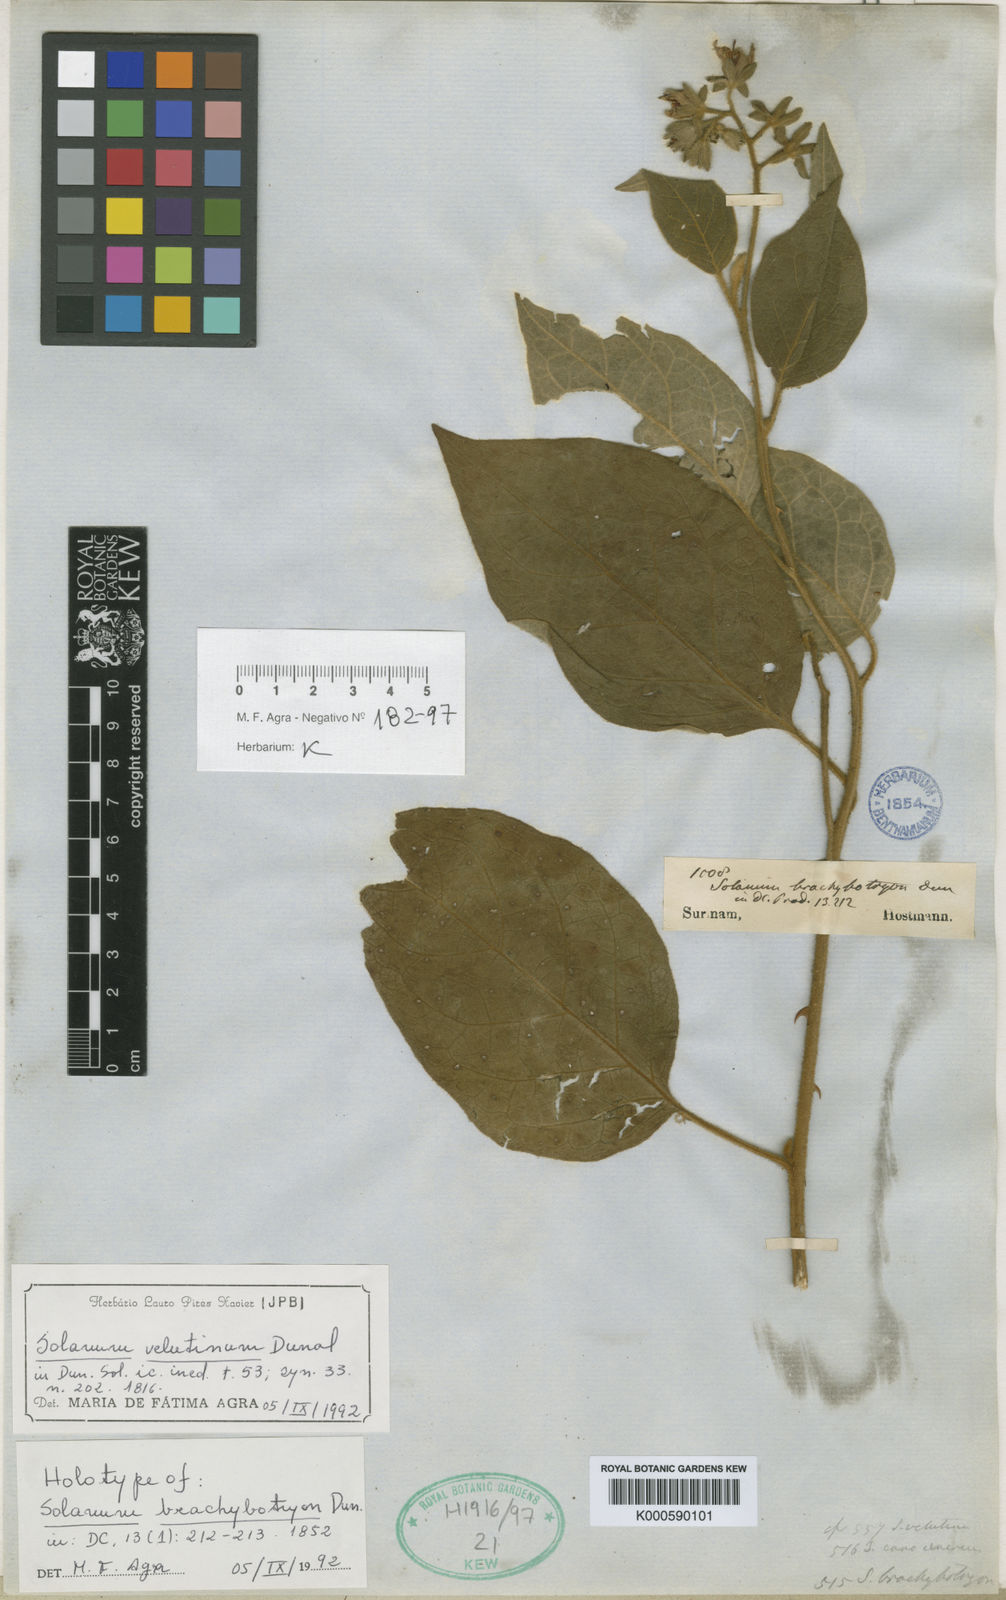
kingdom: Plantae
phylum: Tracheophyta
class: Magnoliopsida
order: Solanales
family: Solanaceae
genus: Solanum
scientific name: Solanum velutinum
